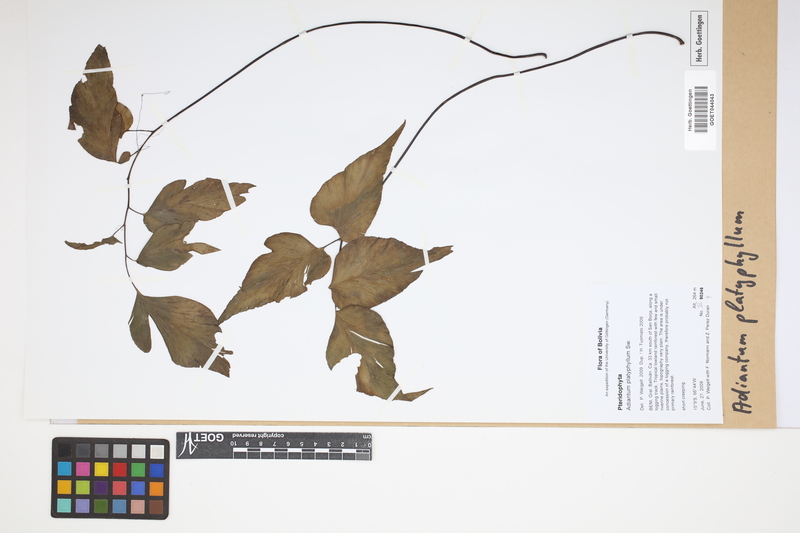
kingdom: Plantae
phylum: Tracheophyta
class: Polypodiopsida
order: Polypodiales
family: Pteridaceae
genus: Adiantum
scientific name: Adiantum platyphyllum
